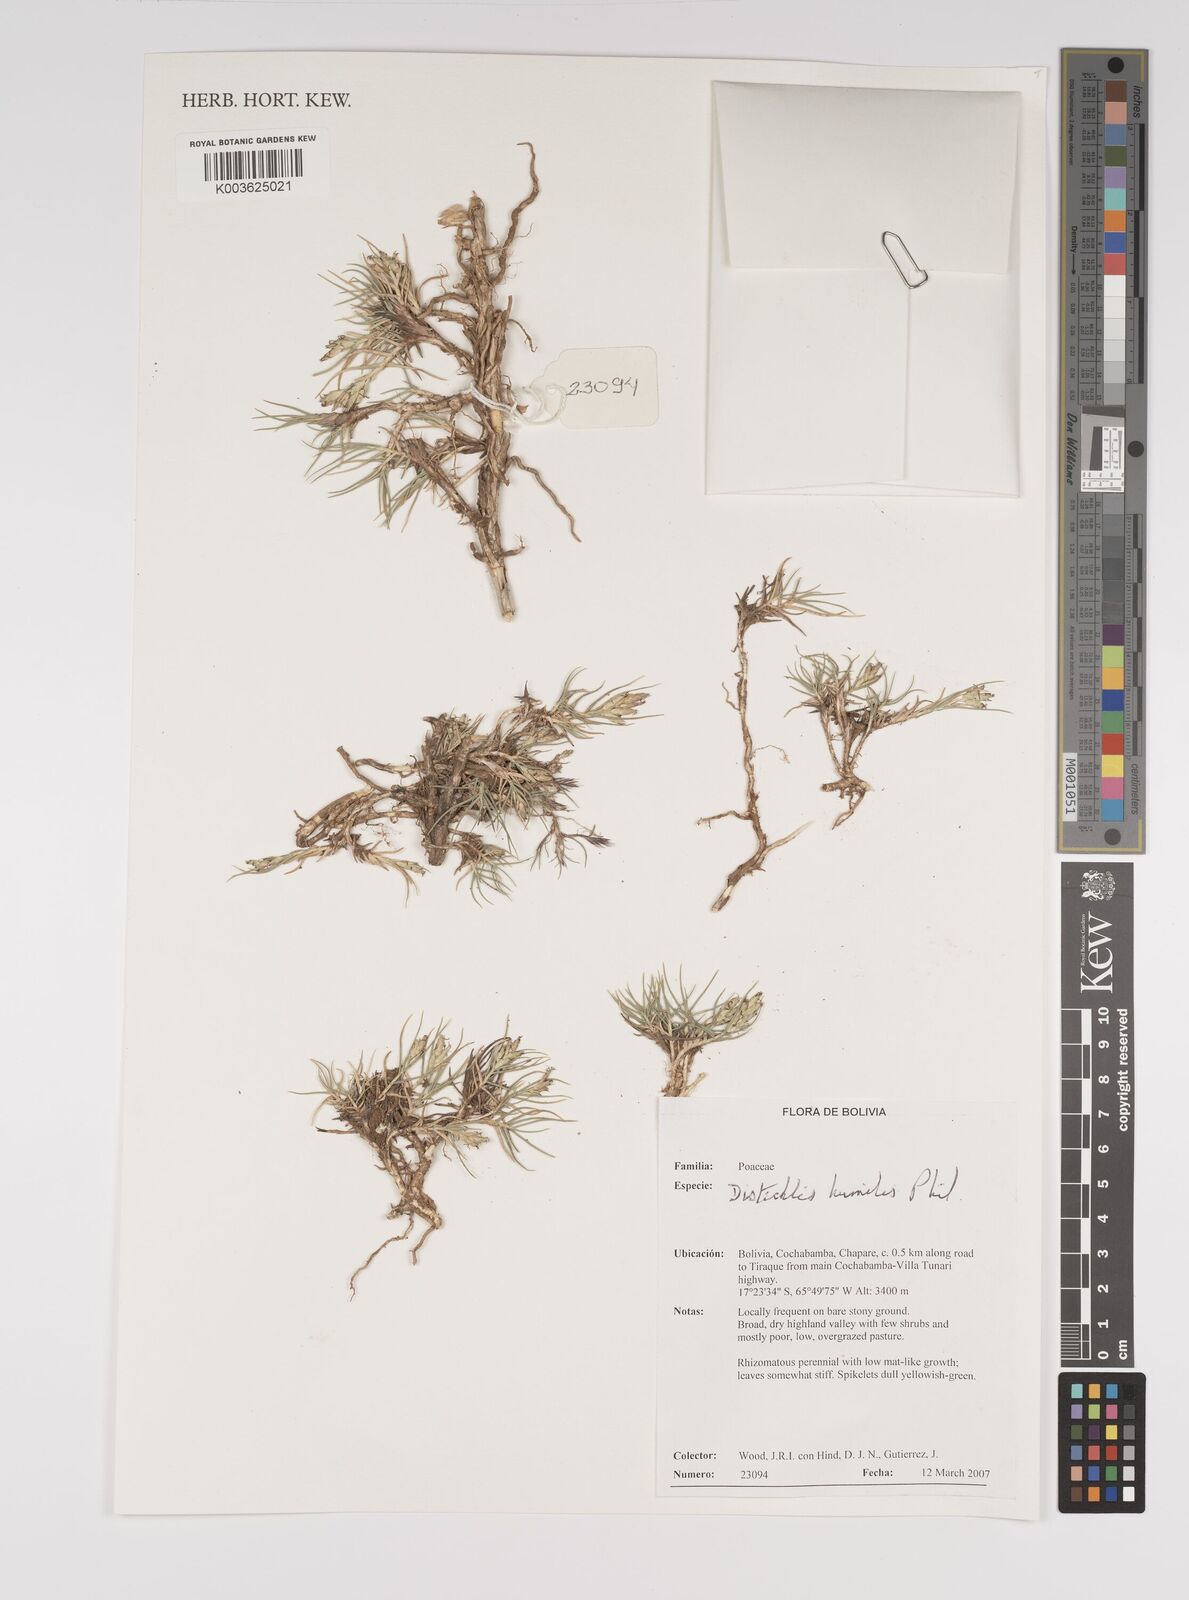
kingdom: Plantae
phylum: Tracheophyta
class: Liliopsida
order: Poales
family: Poaceae
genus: Distichlis
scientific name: Distichlis humilis
